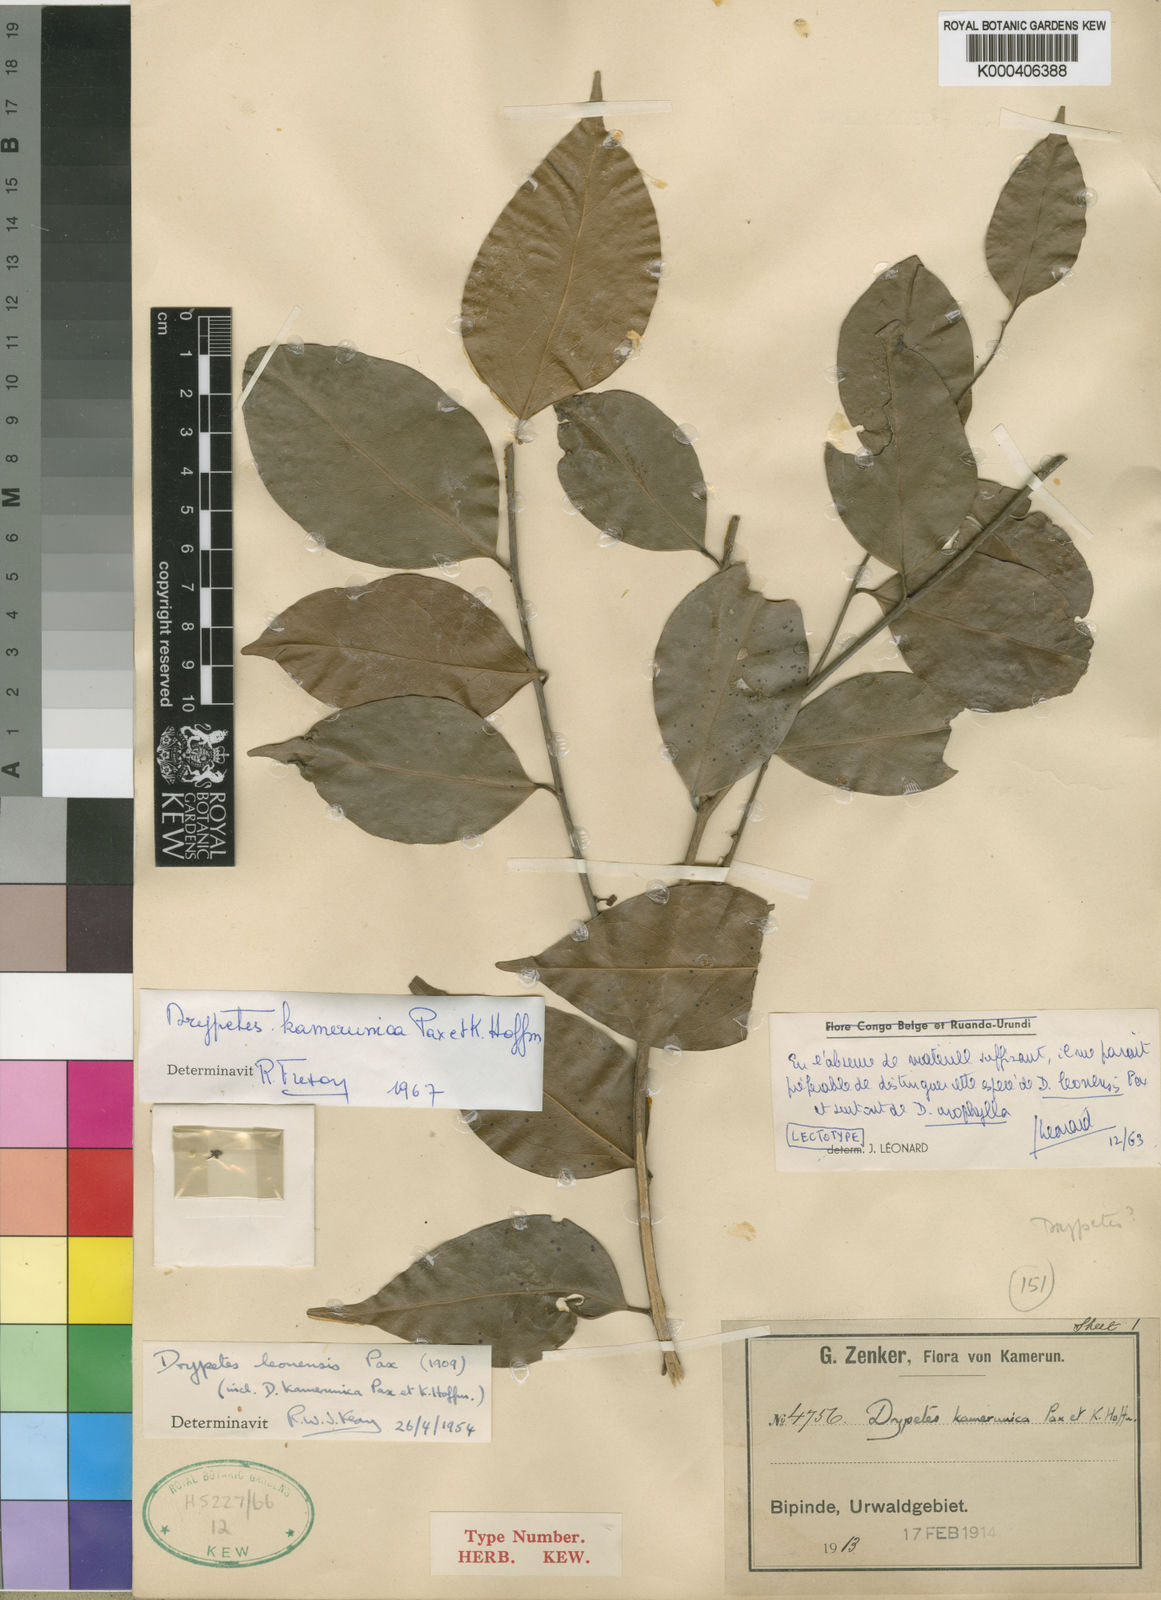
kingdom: Plantae
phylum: Tracheophyta
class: Magnoliopsida
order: Malpighiales
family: Putranjivaceae
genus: Drypetes
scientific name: Drypetes leonensis
